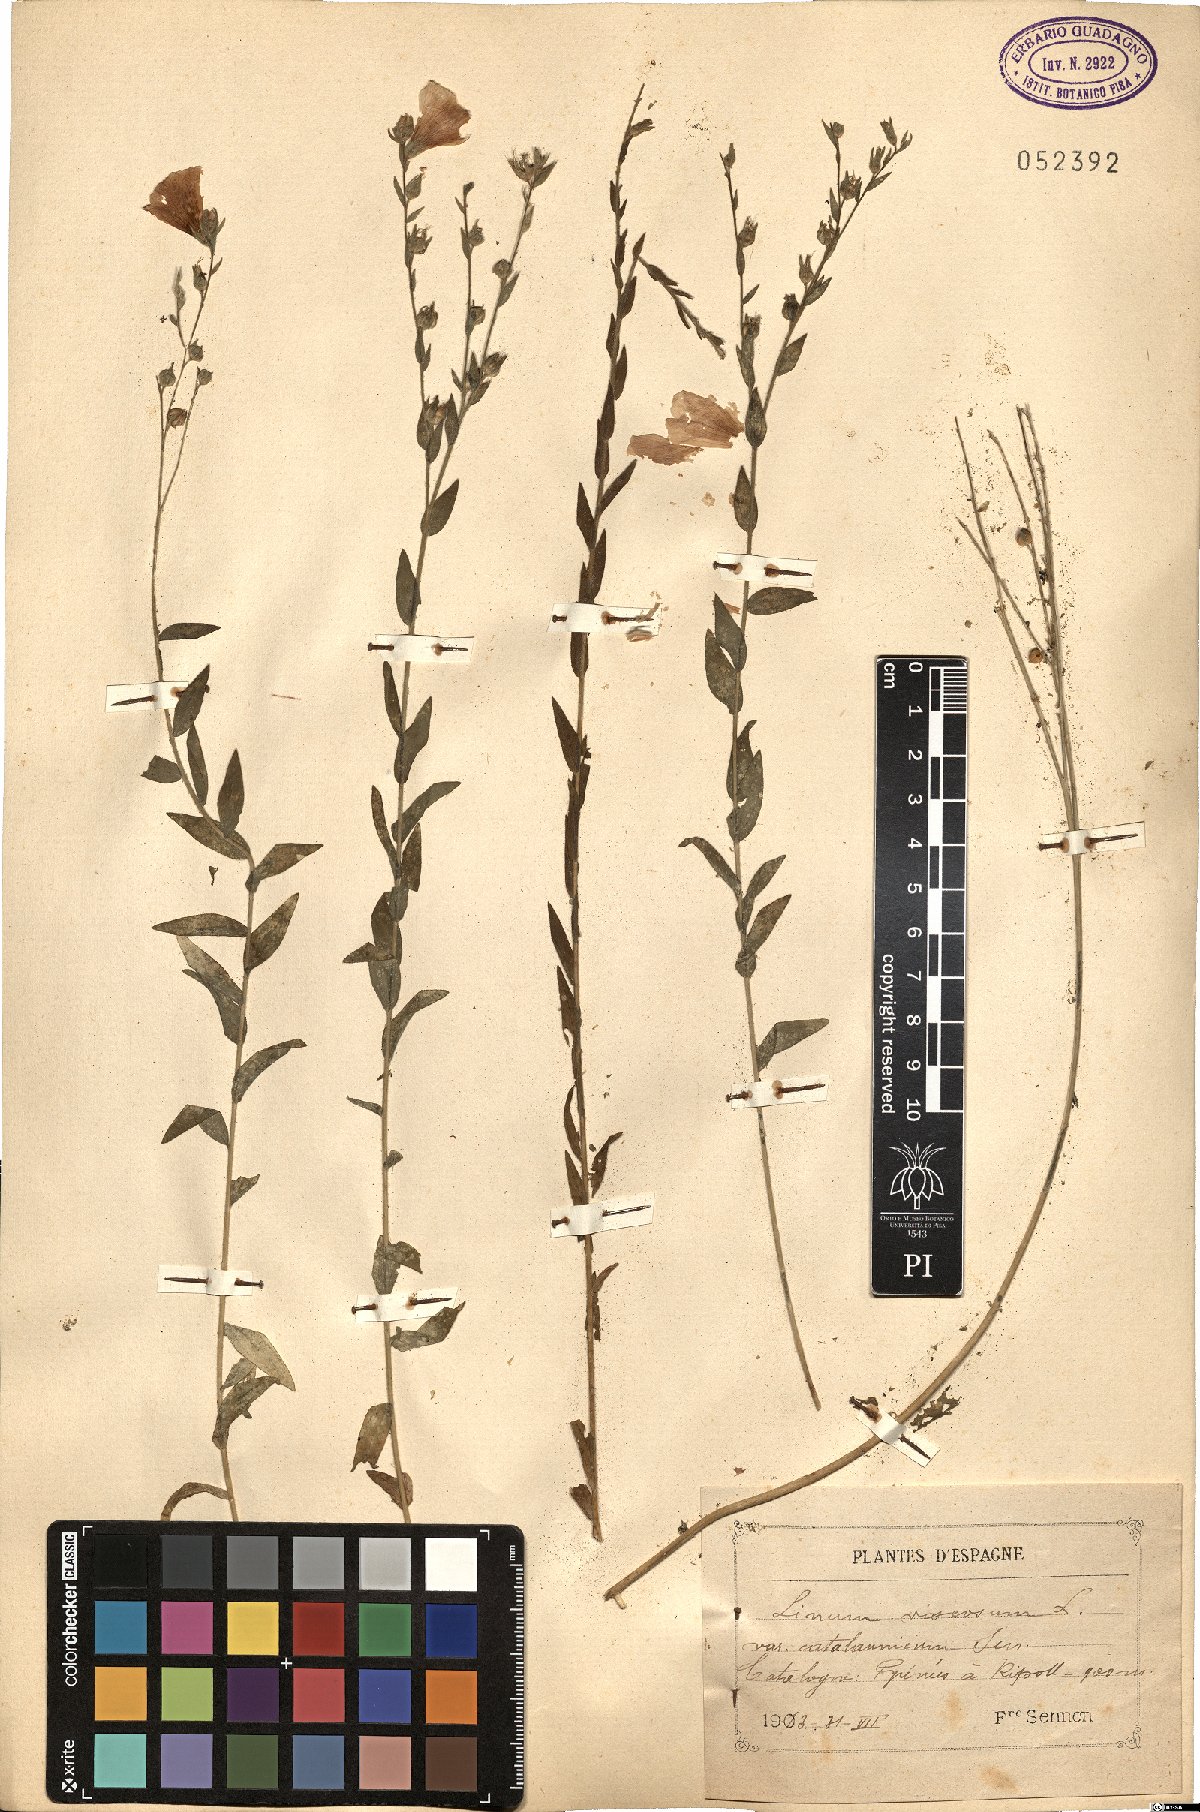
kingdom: Plantae
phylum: Tracheophyta
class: Magnoliopsida
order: Malpighiales
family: Linaceae
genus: Linum
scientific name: Linum viscosum
